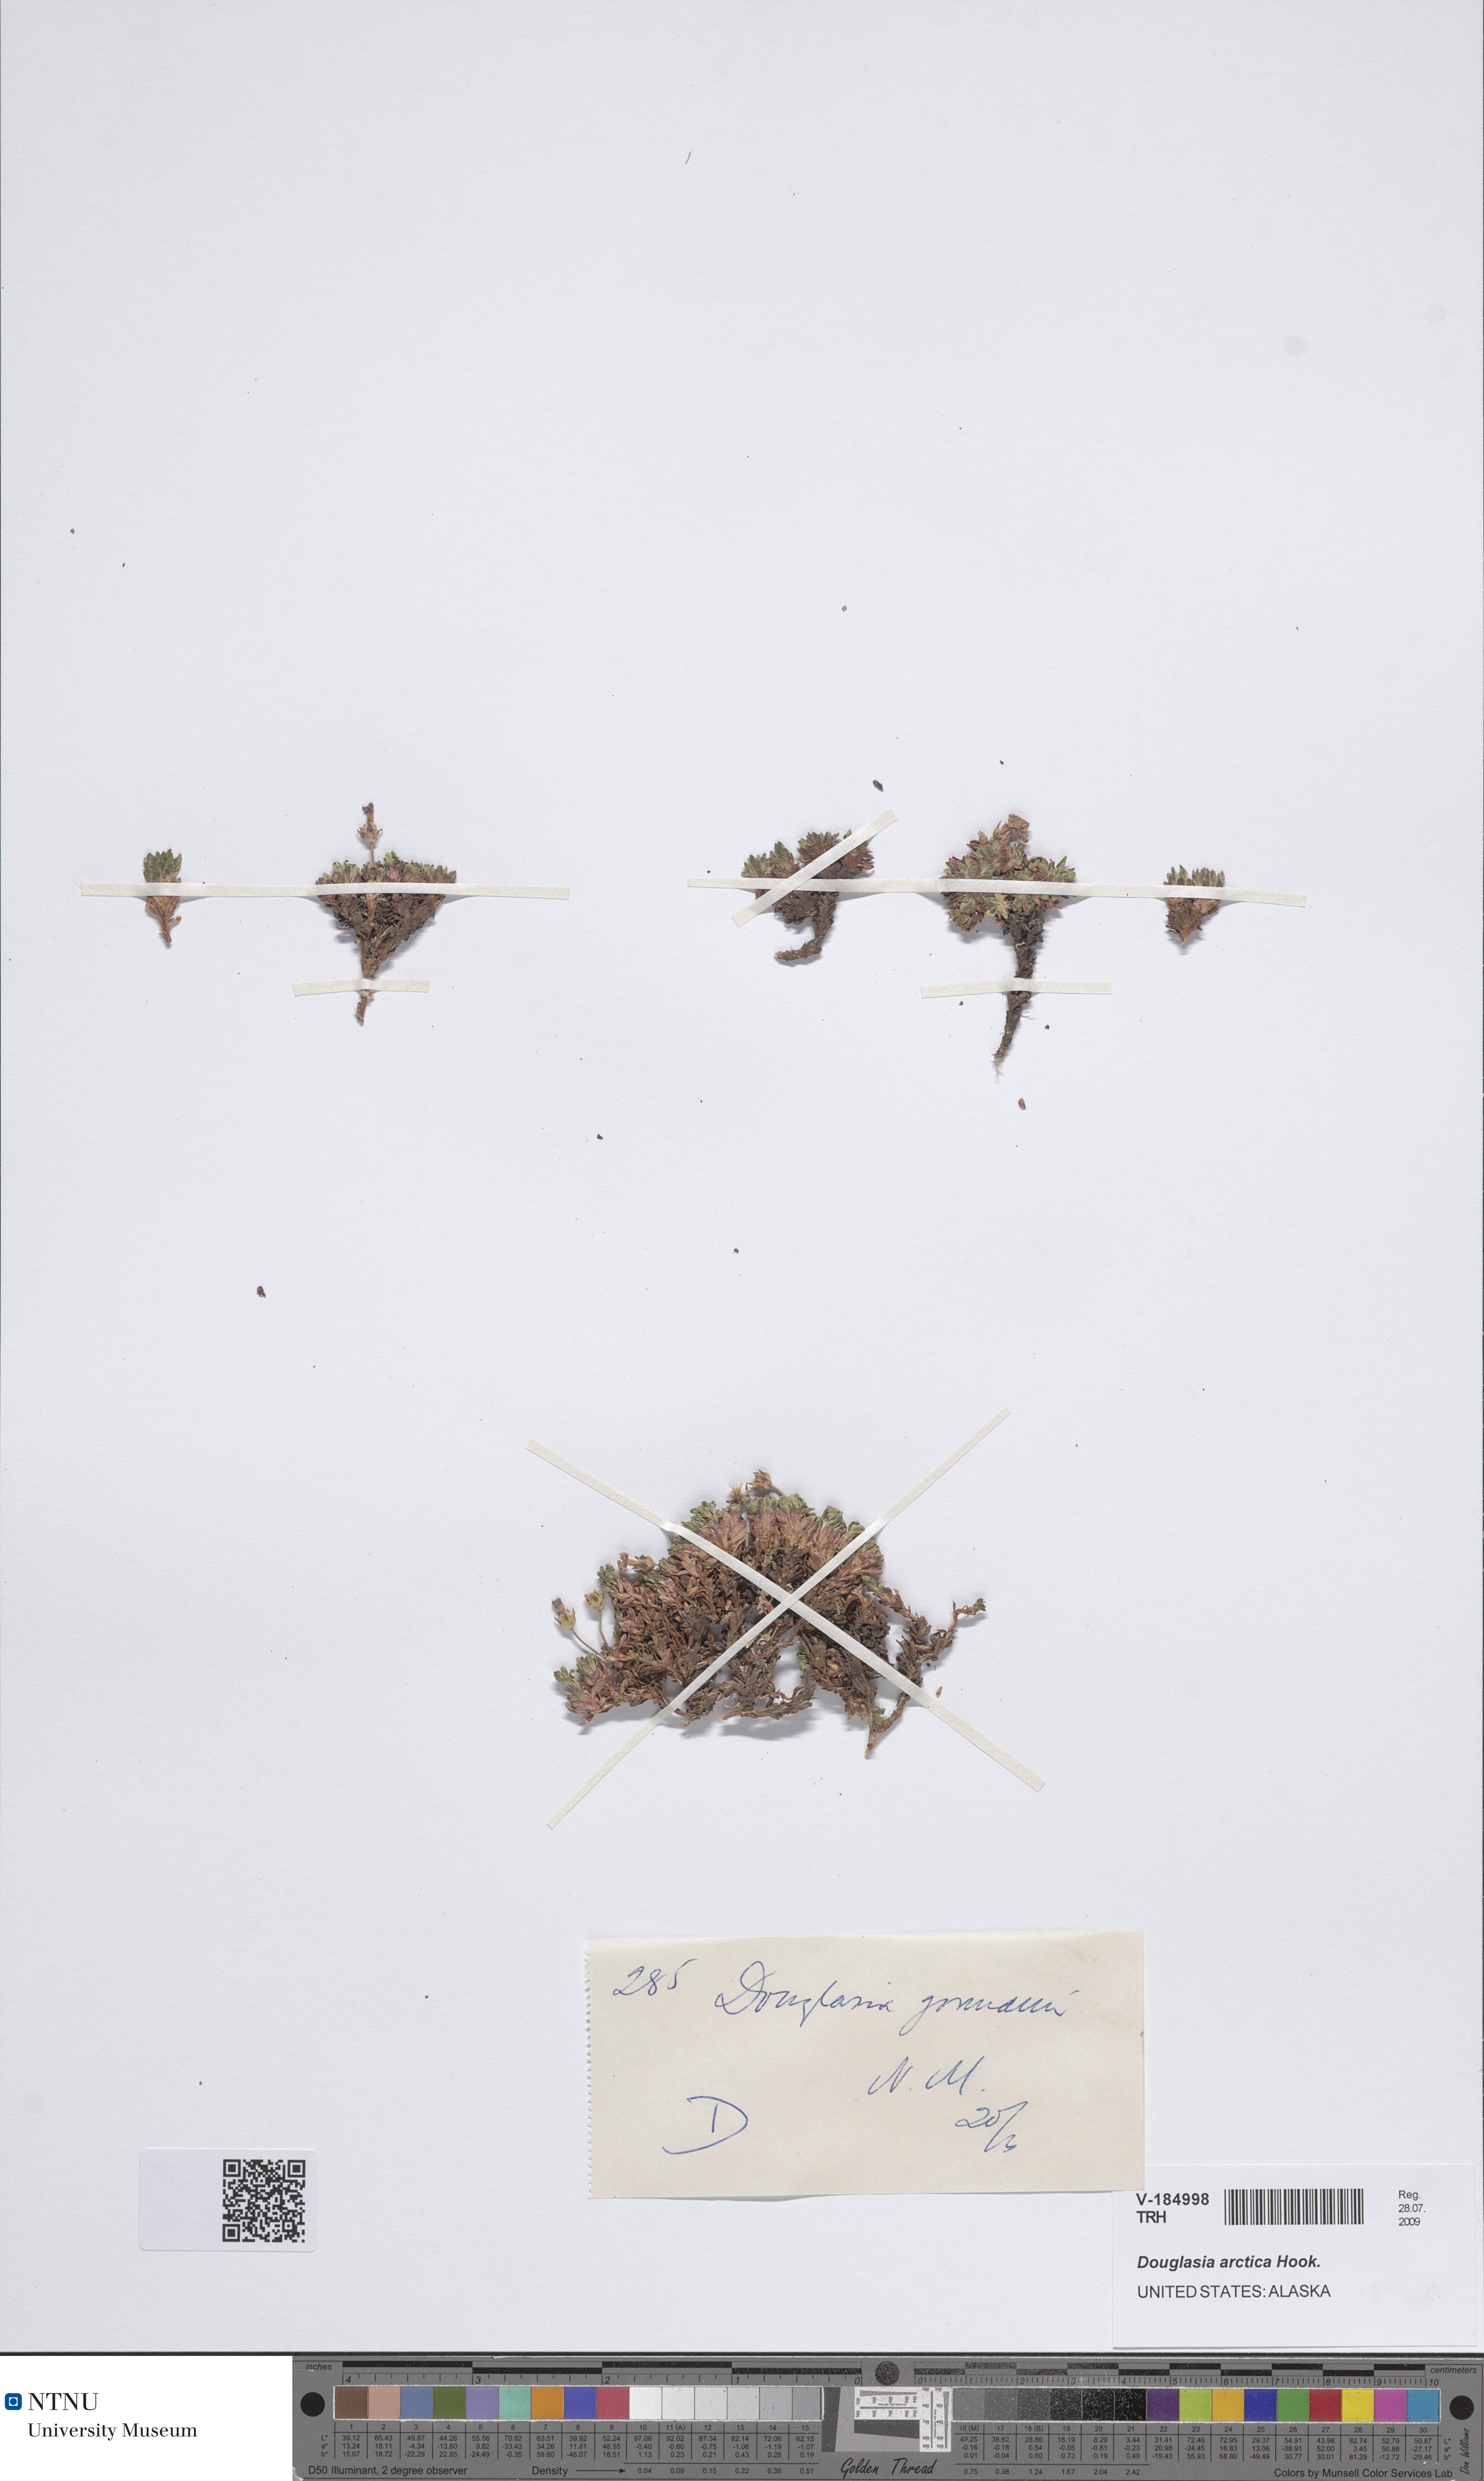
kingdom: Plantae
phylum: Tracheophyta
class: Magnoliopsida
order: Ericales
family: Primulaceae
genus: Androsace
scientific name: Androsace americana
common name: Mackenzie river dwarf-primrose
